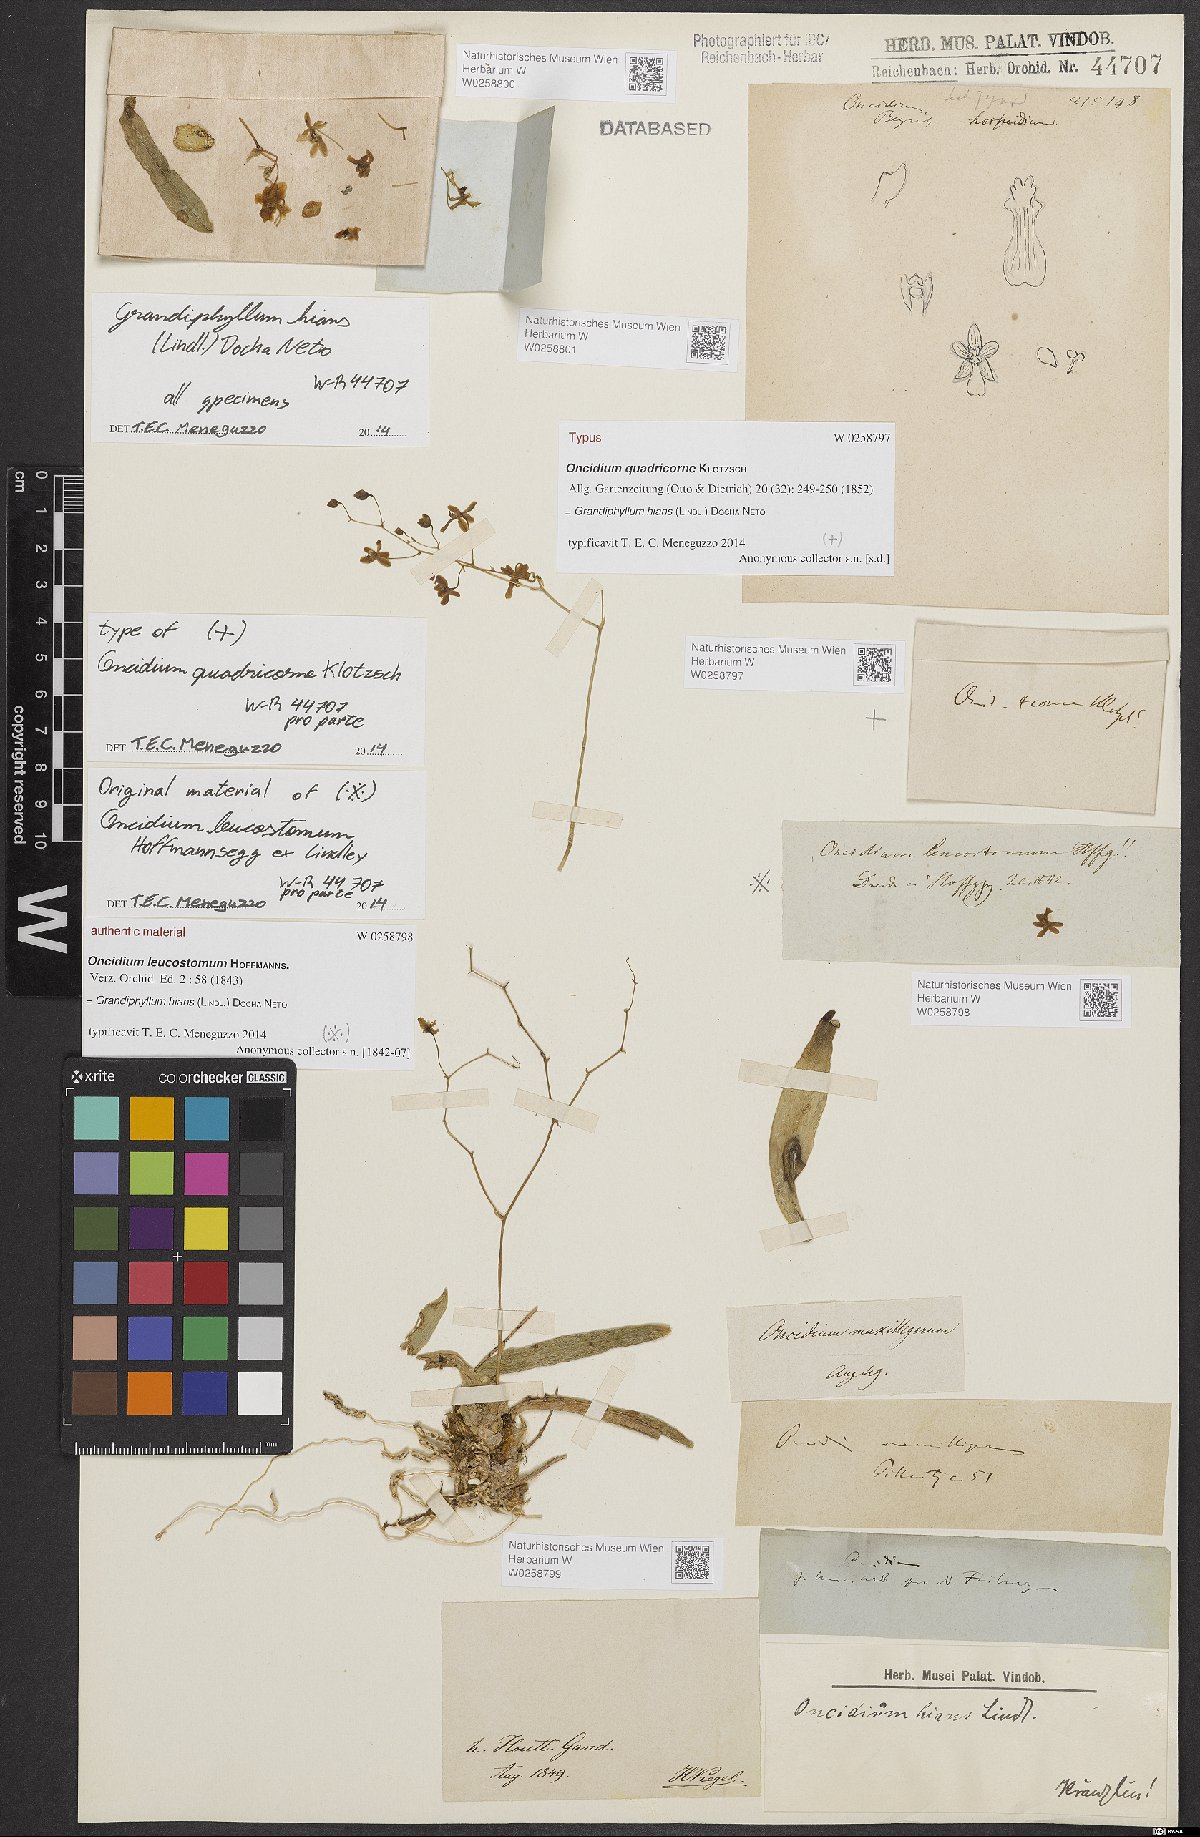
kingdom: Plantae
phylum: Tracheophyta
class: Liliopsida
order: Asparagales
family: Orchidaceae
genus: Grandiphyllum
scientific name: Grandiphyllum hians
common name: Mule-ear orchid
